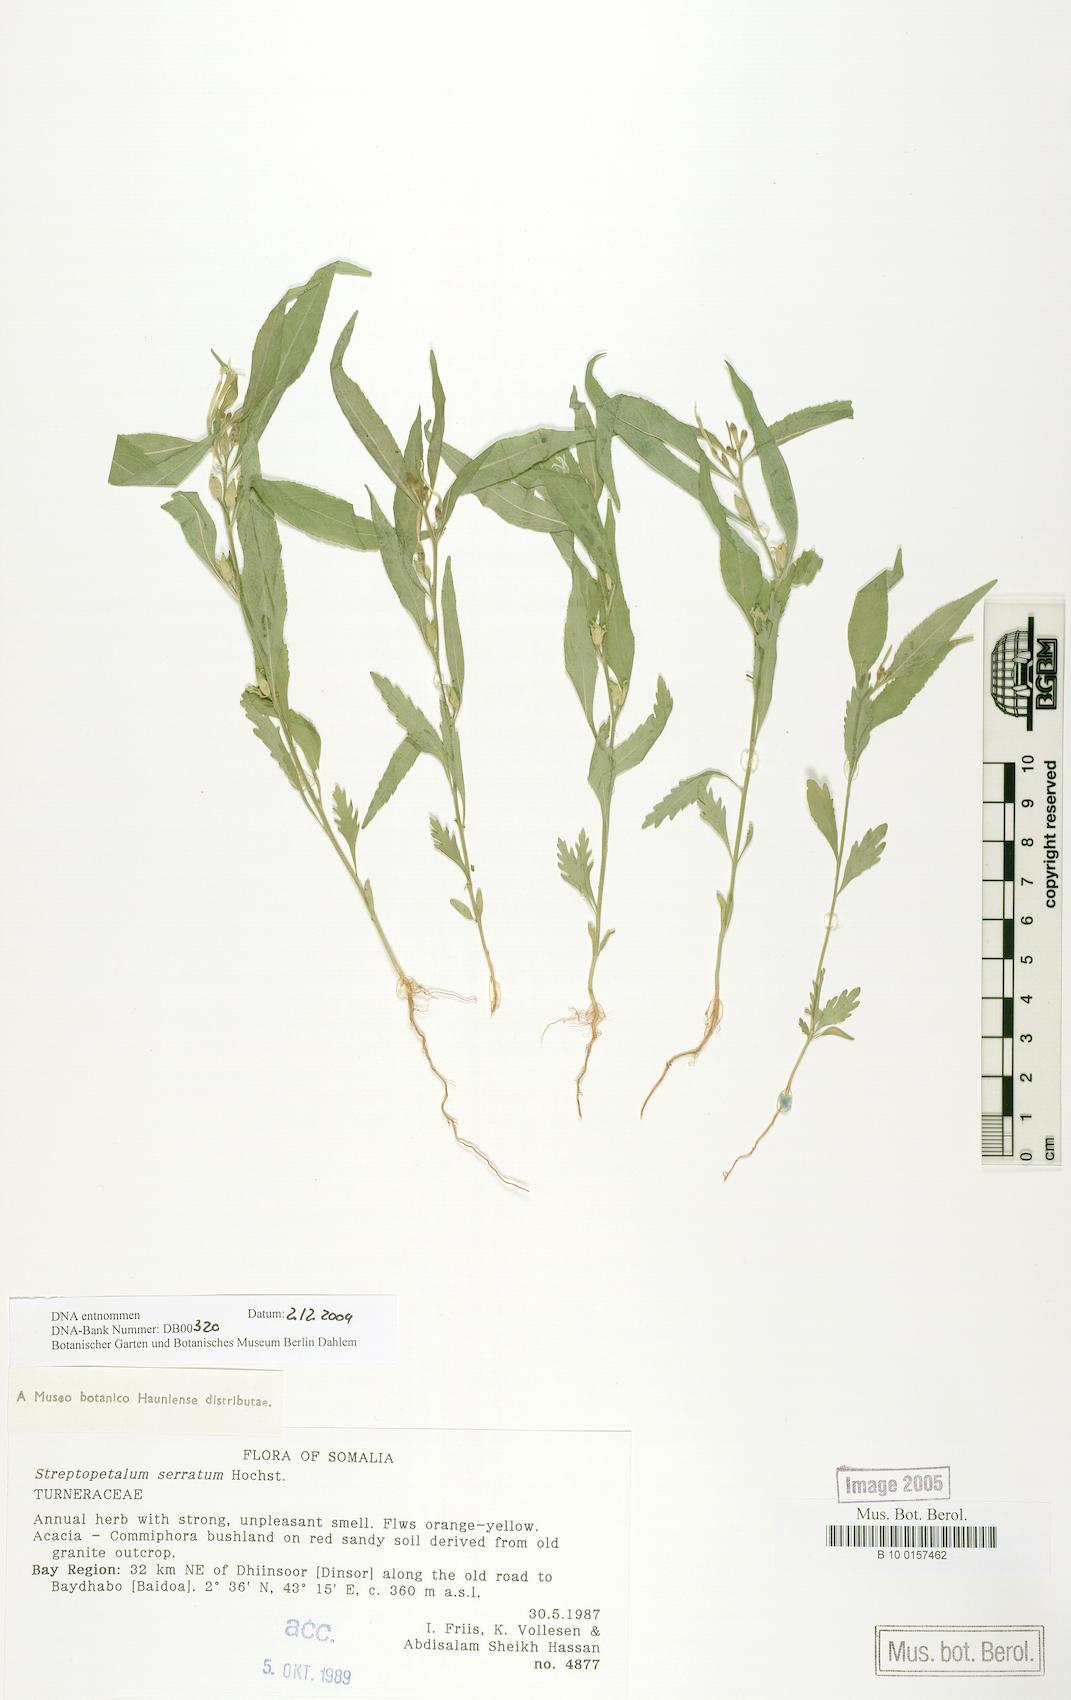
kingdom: Plantae
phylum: Tracheophyta
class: Magnoliopsida
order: Malpighiales
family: Turneraceae
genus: Streptopetalum
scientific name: Streptopetalum serratum
